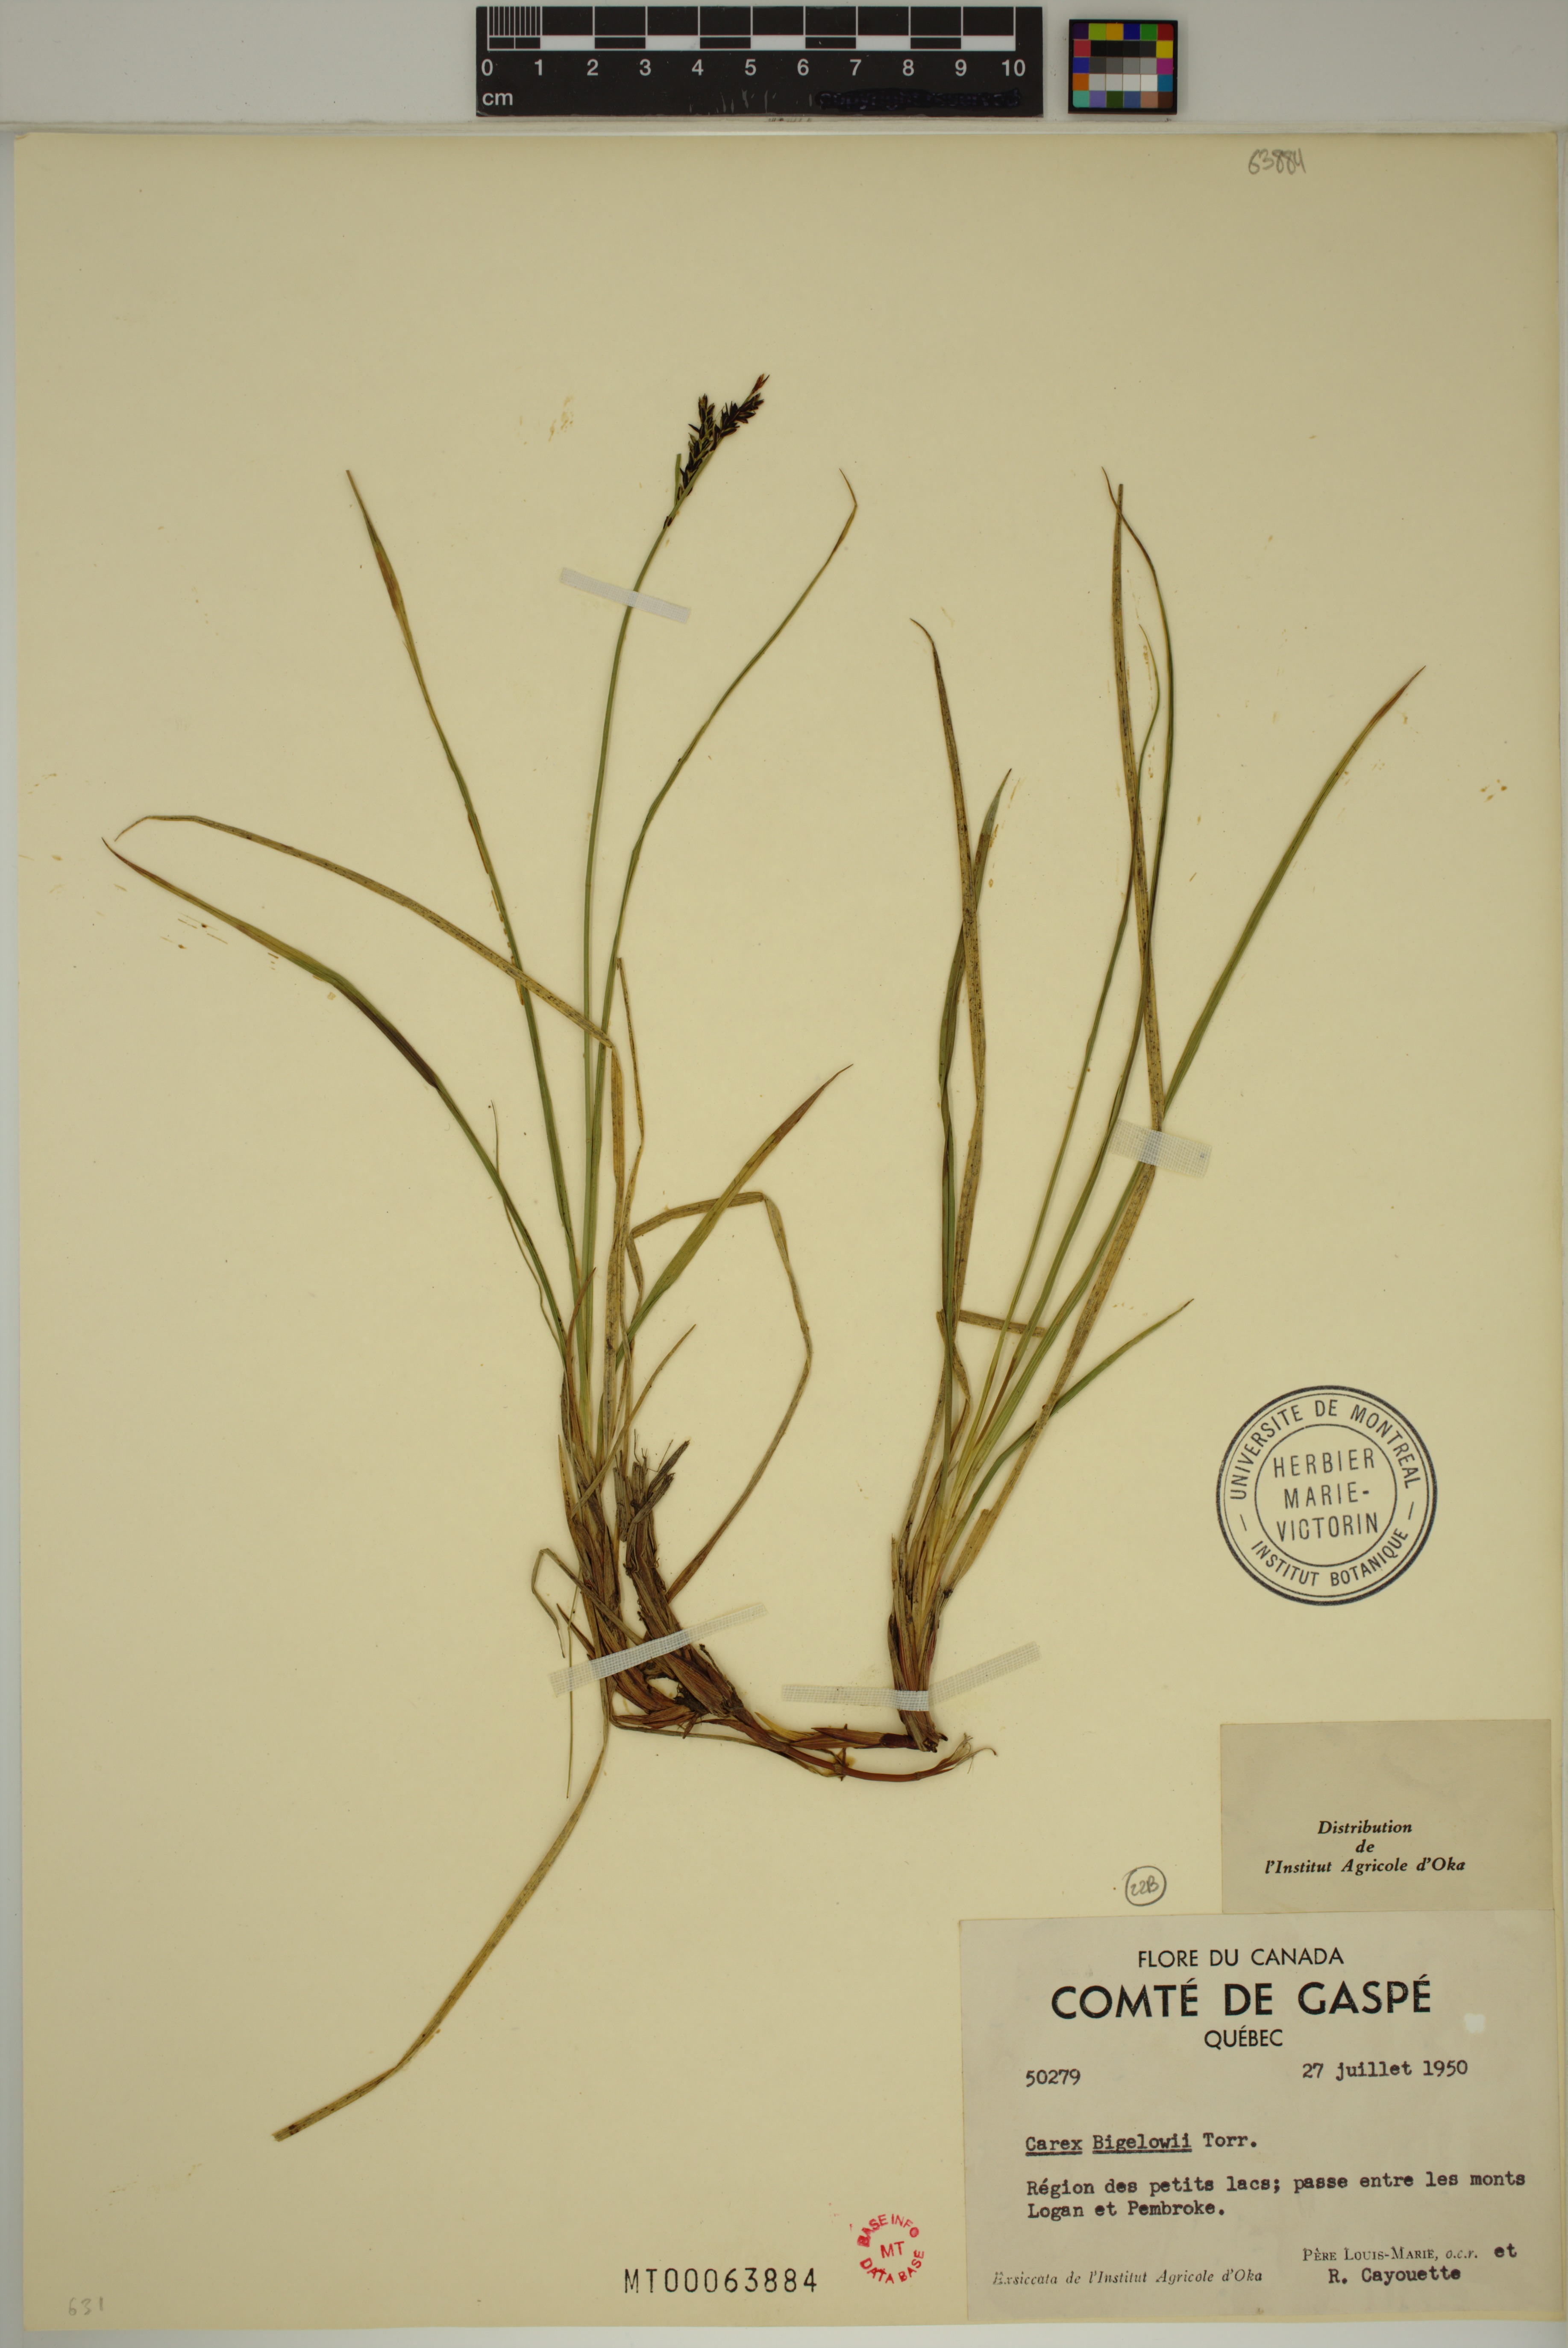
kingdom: Plantae
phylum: Tracheophyta
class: Liliopsida
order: Poales
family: Cyperaceae
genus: Carex
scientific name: Carex bigelowii
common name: Stiff sedge
